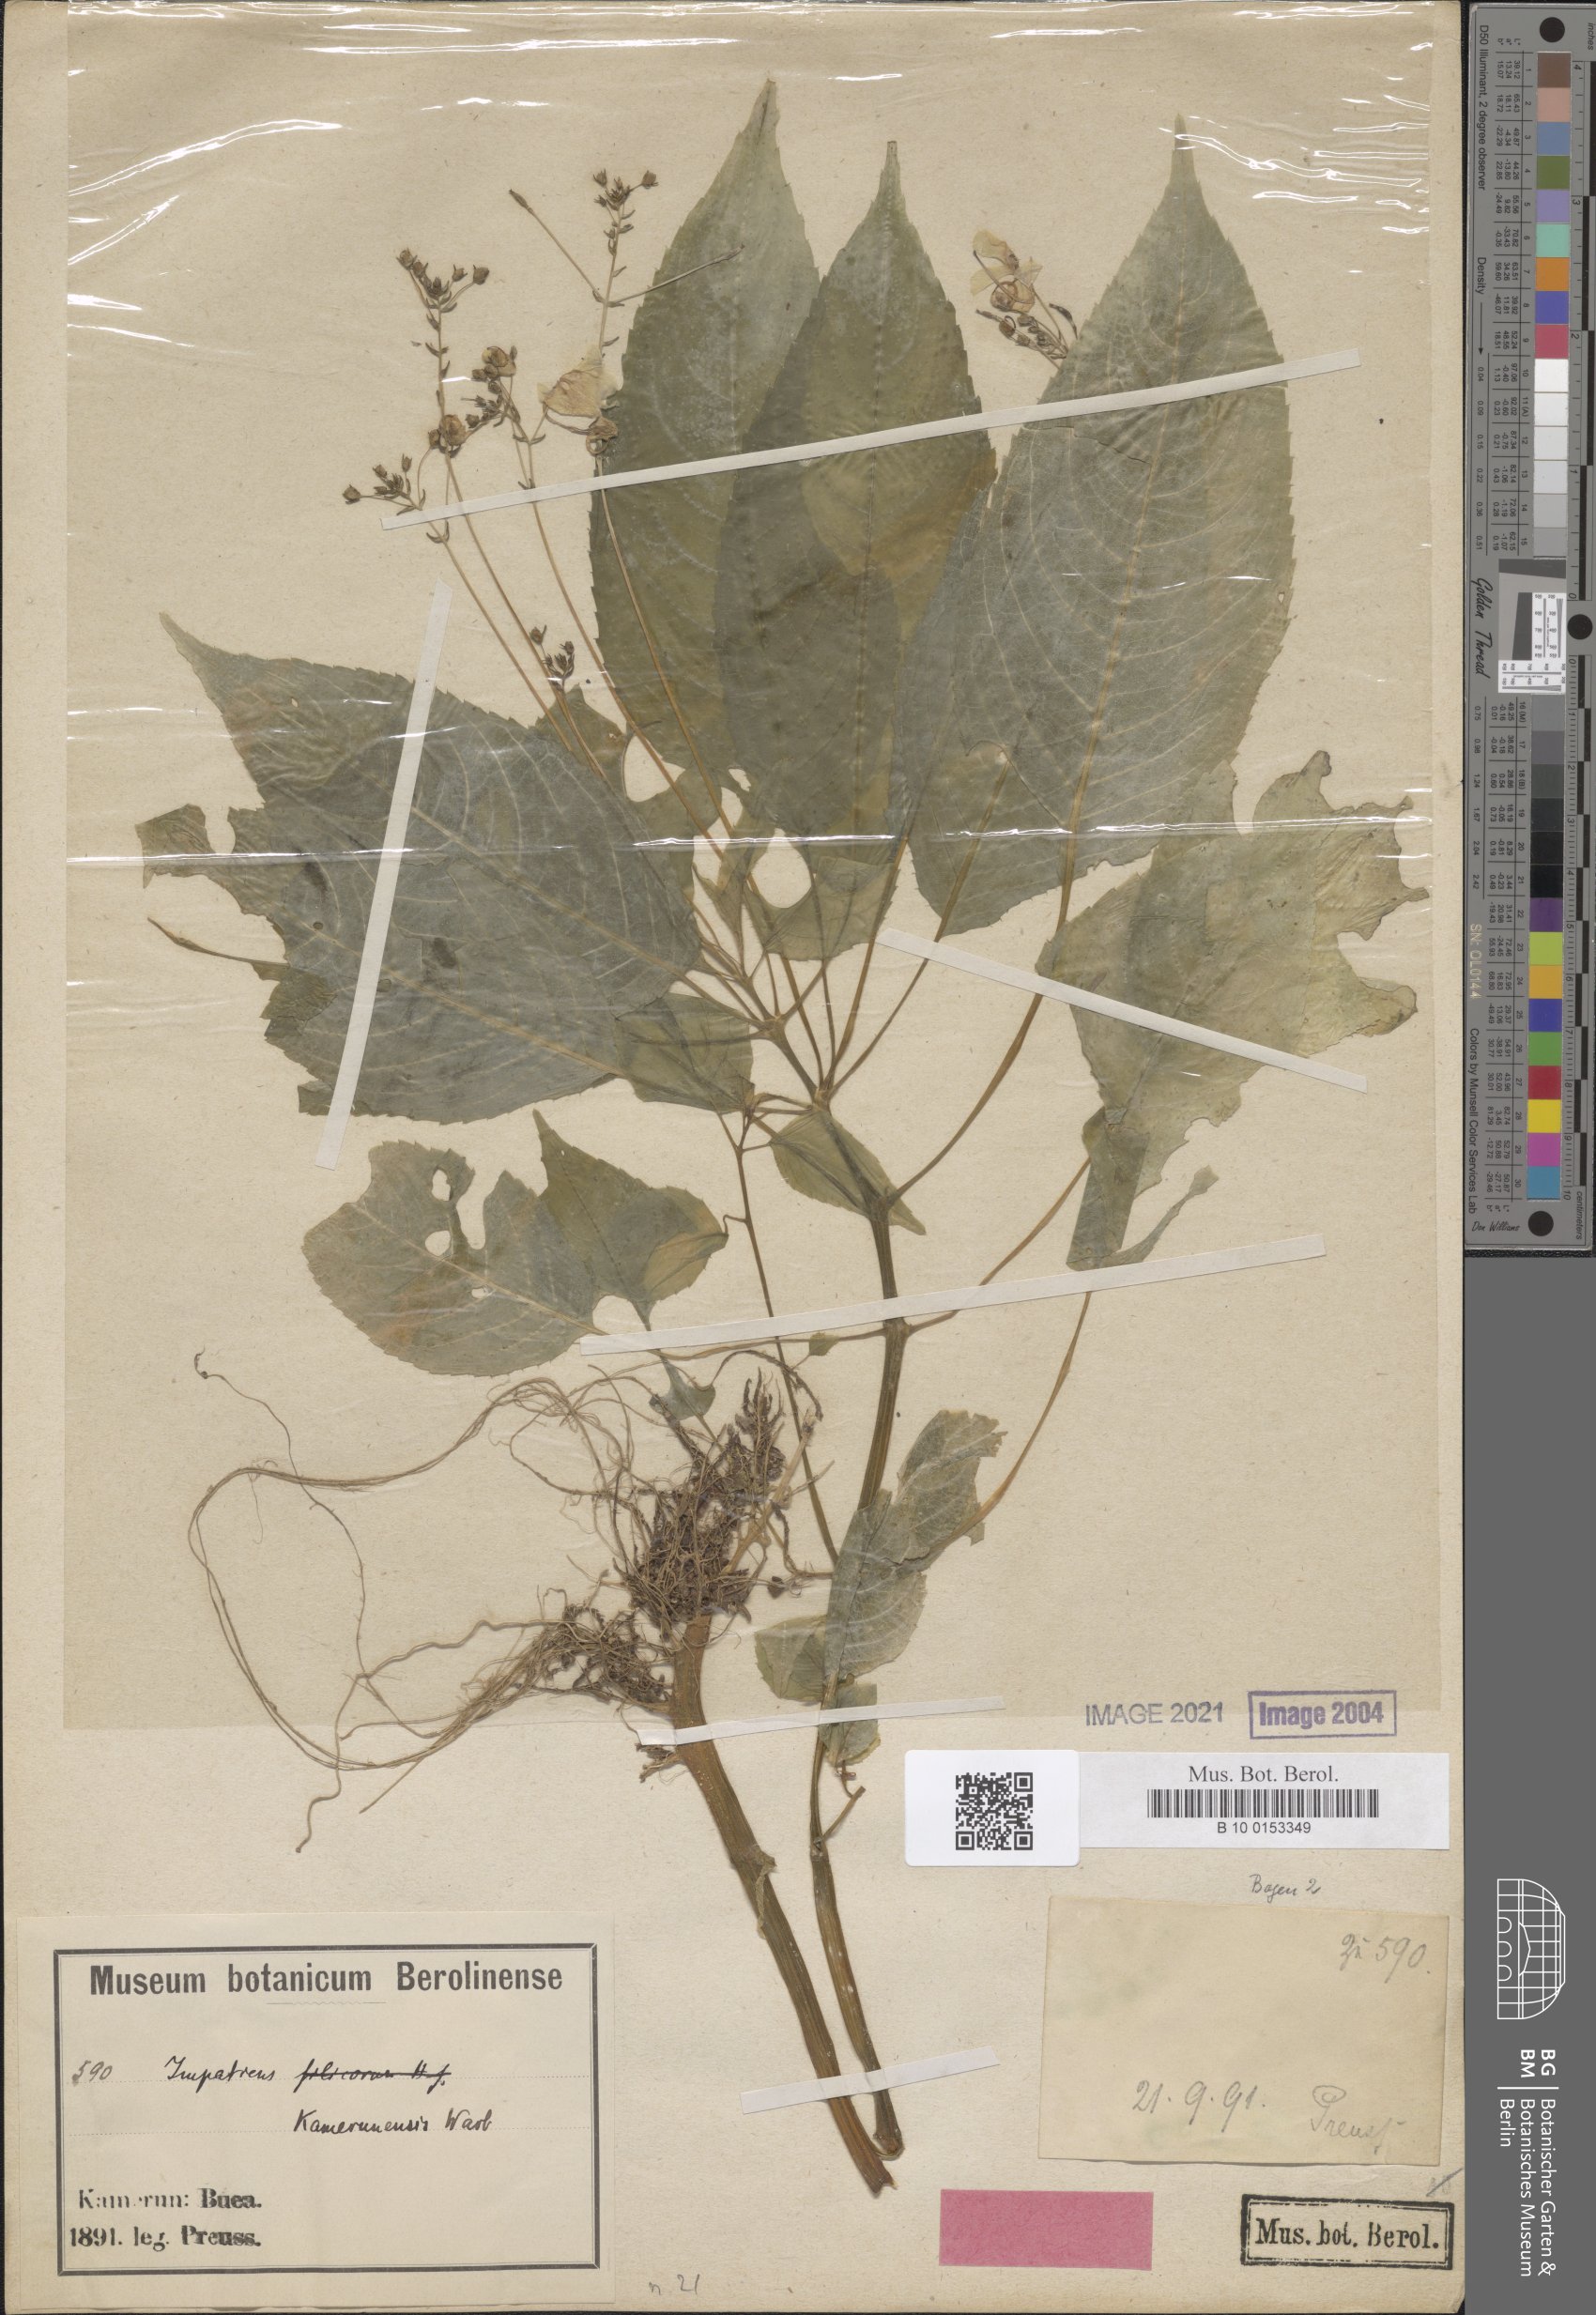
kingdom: Plantae
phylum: Tracheophyta
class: Magnoliopsida
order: Ericales
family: Balsaminaceae
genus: Impatiens
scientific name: Impatiens kamerunensis
